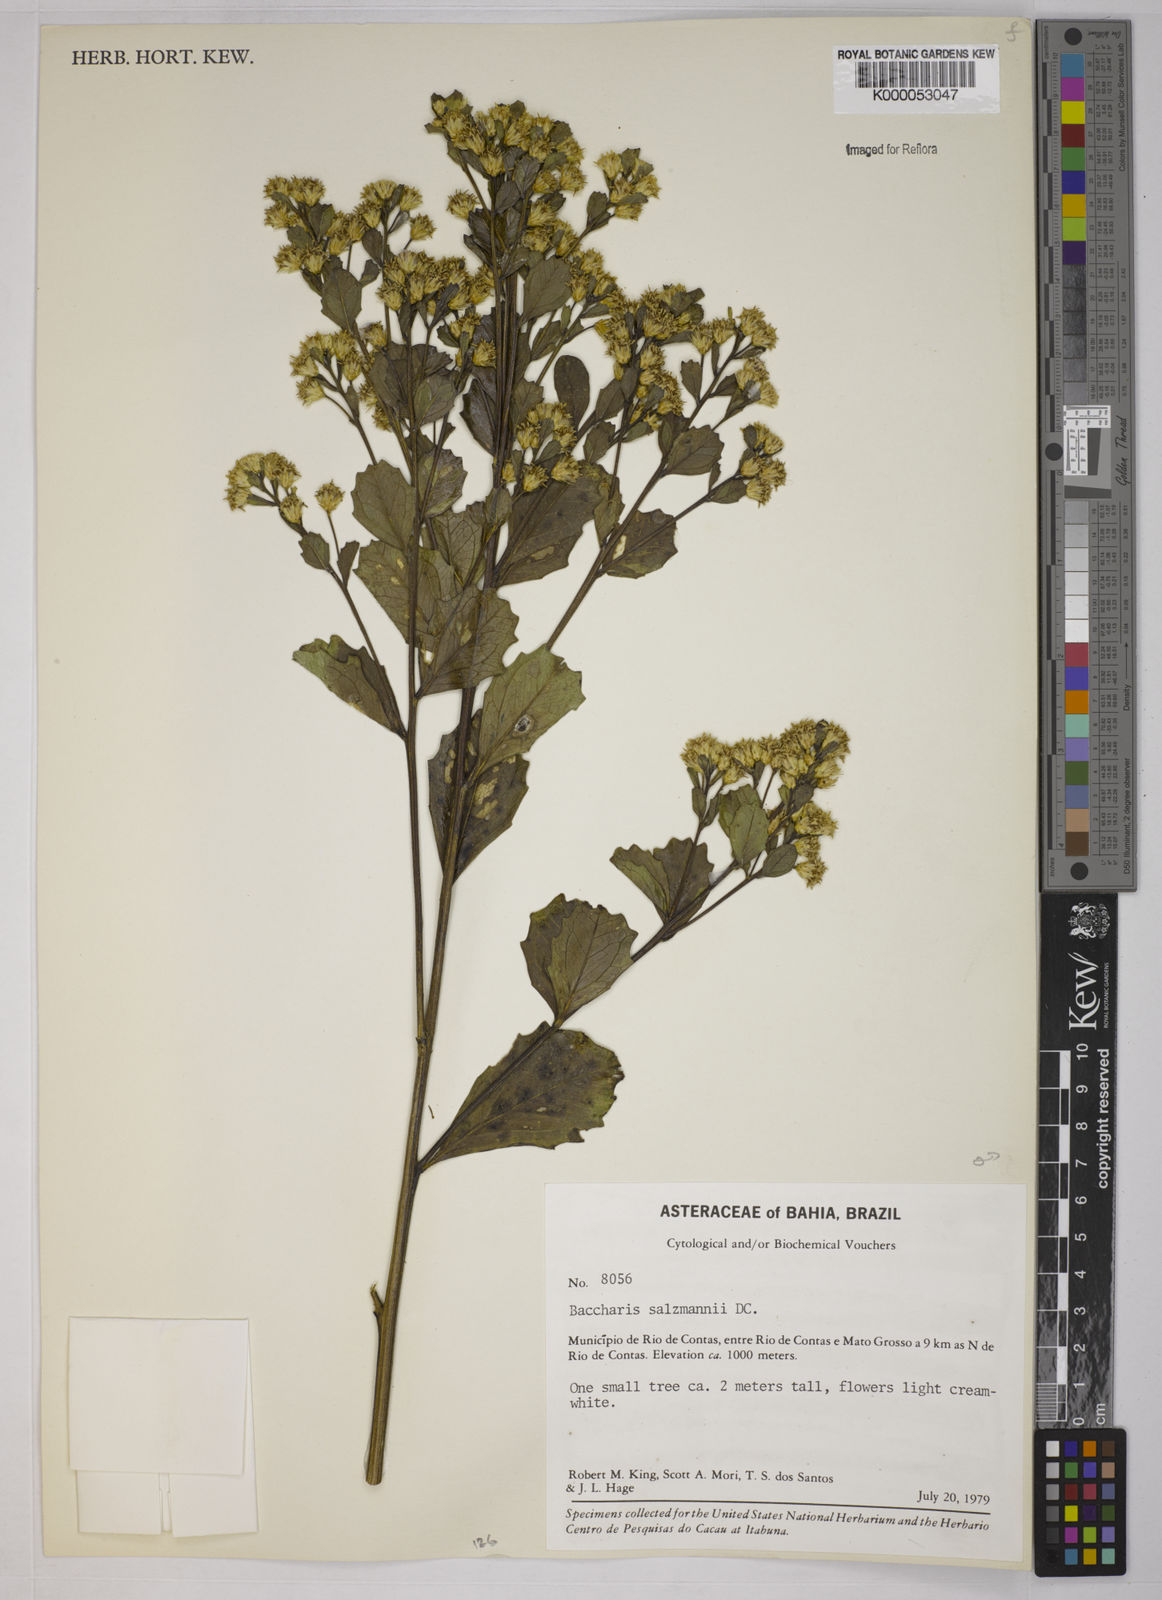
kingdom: Plantae
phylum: Tracheophyta
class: Magnoliopsida
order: Asterales
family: Asteraceae
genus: Baccharis
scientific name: Baccharis retusa
